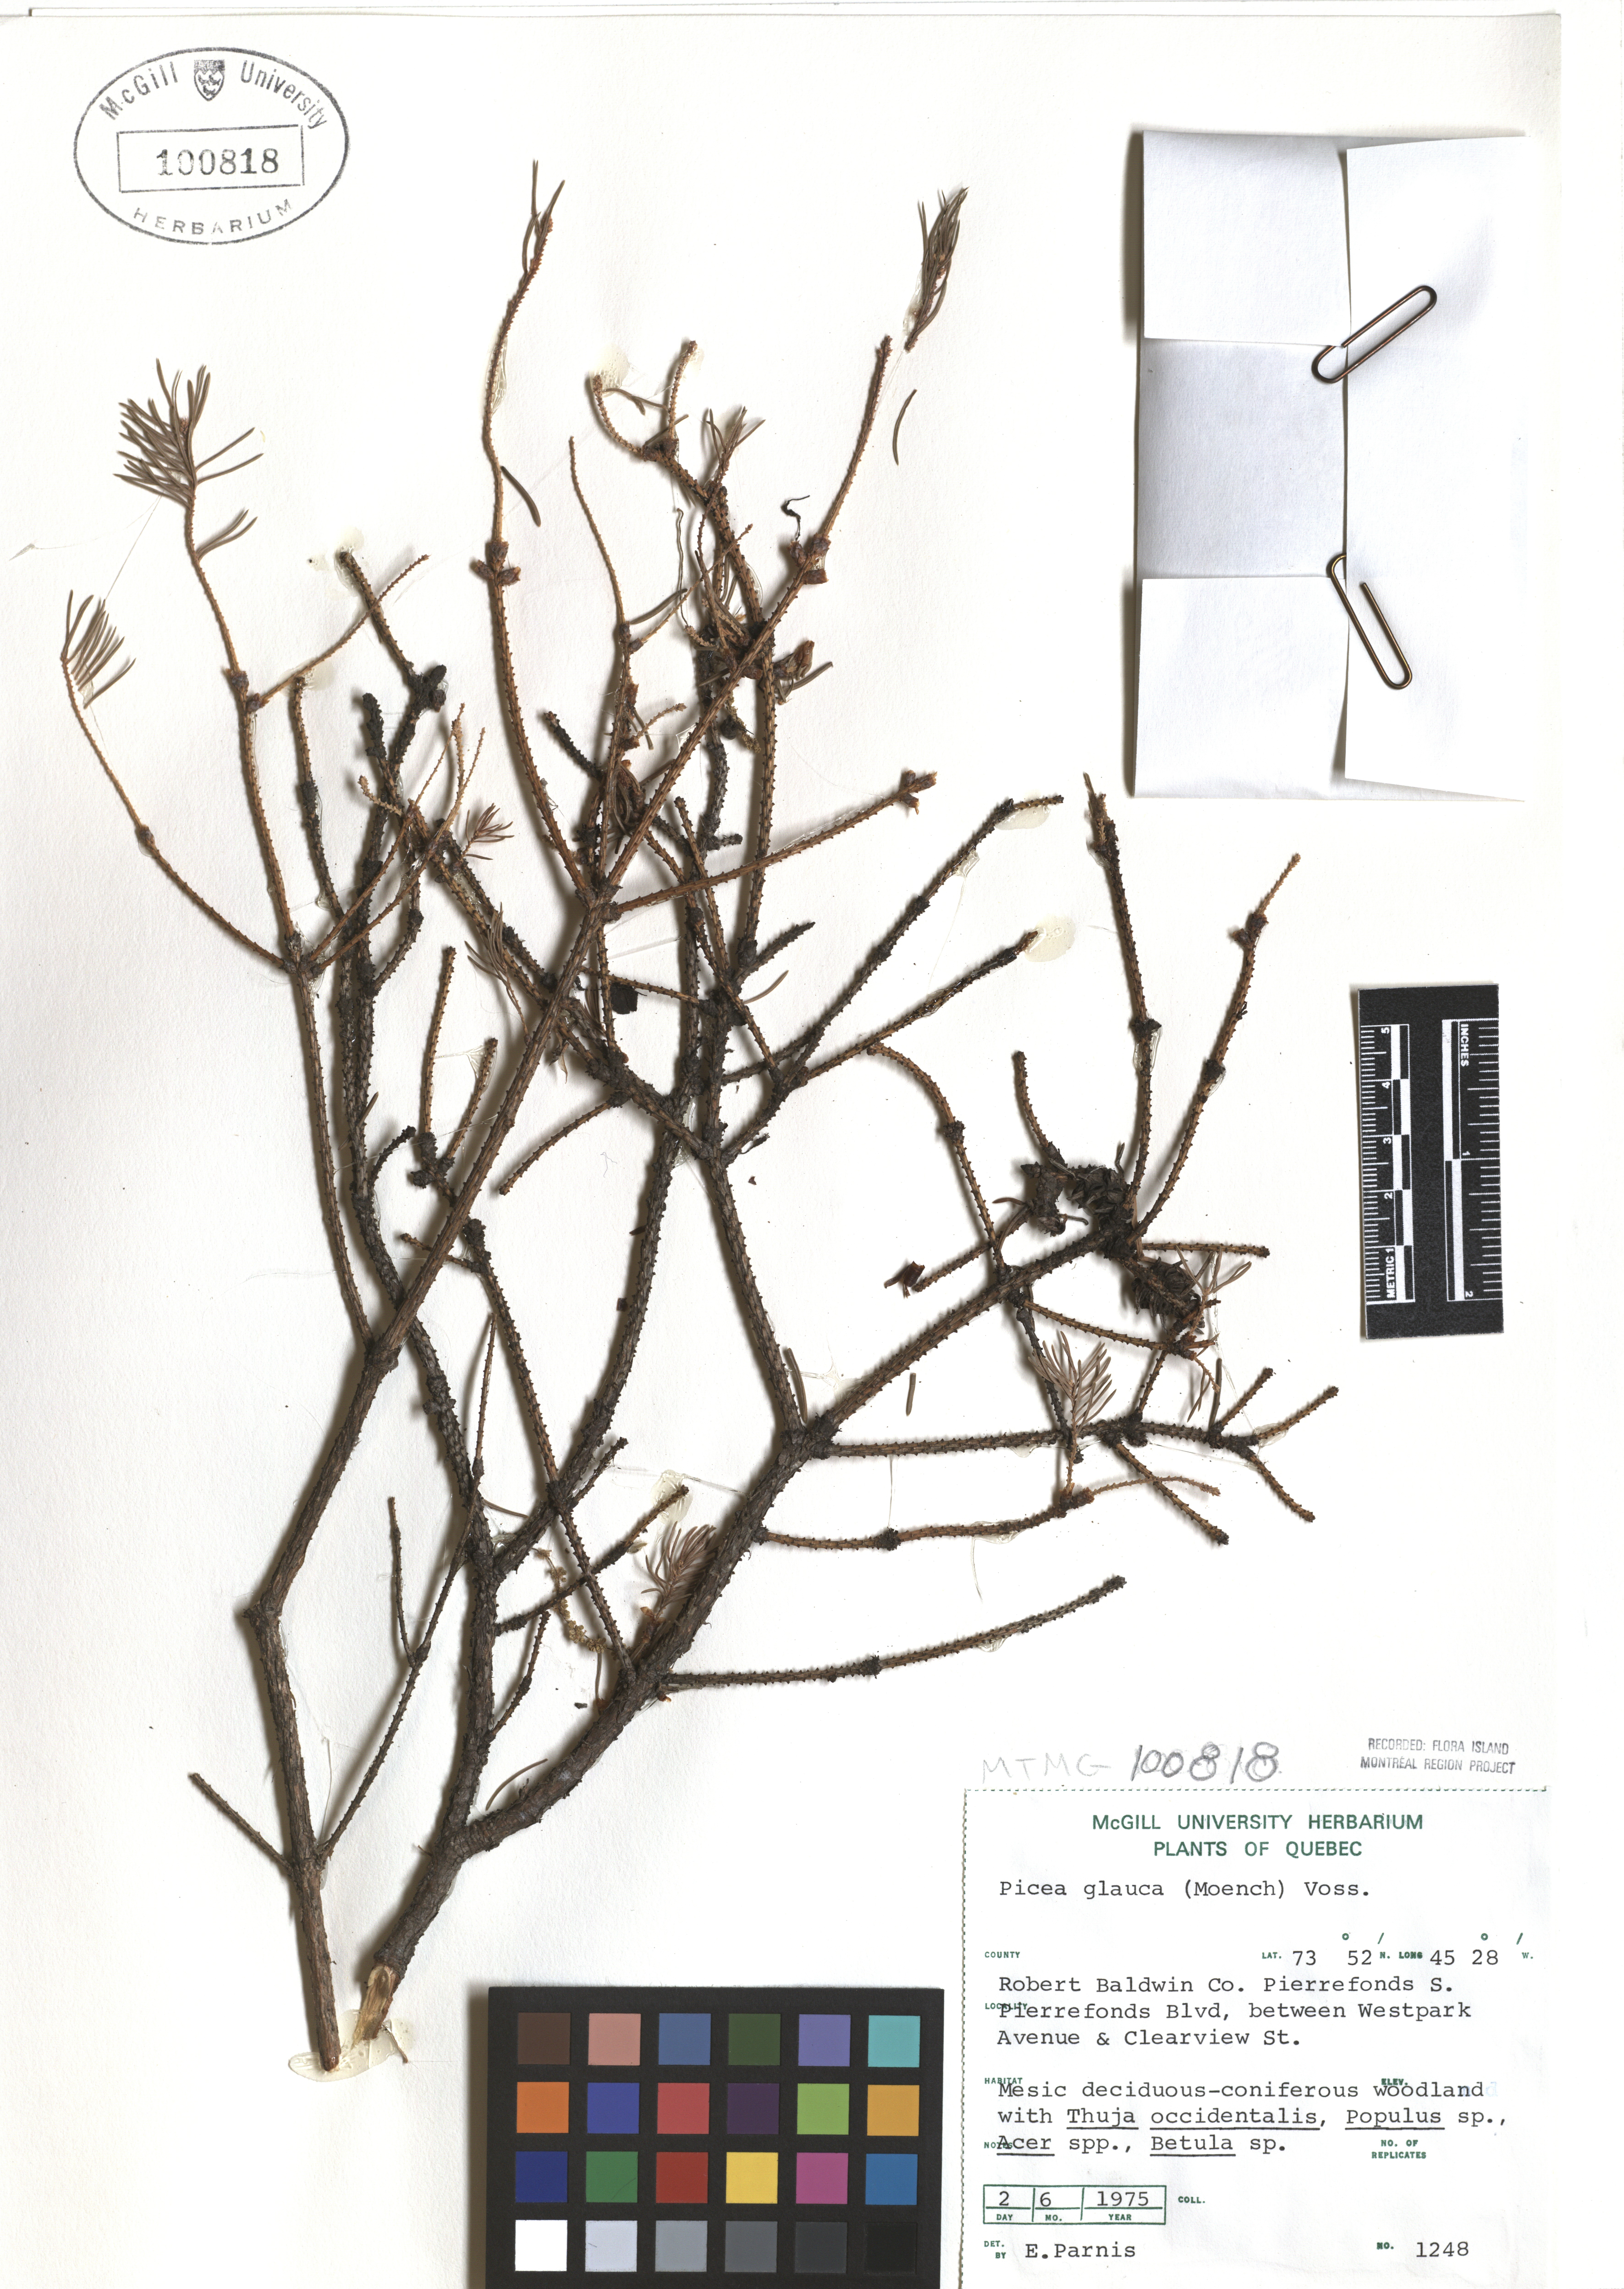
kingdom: Plantae
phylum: Tracheophyta
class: Pinopsida
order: Pinales
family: Pinaceae
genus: Picea
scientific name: Picea glauca
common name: White spruce
